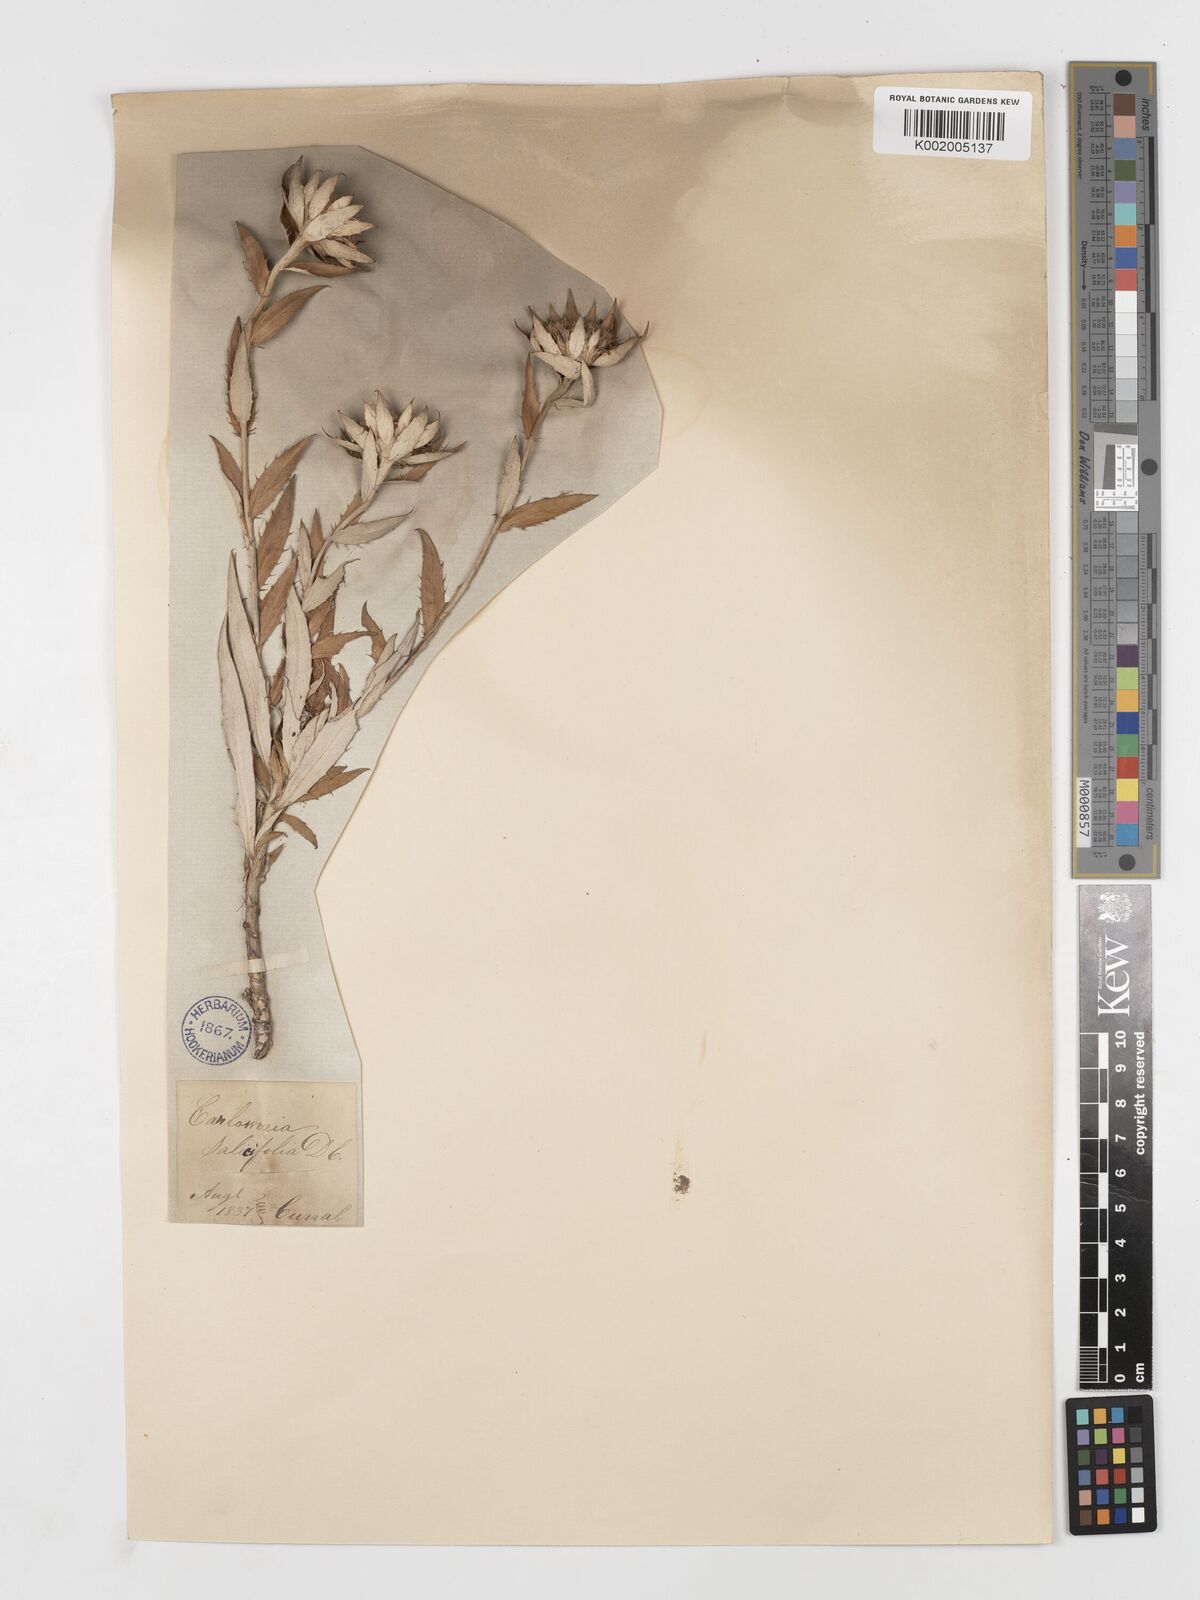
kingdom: Plantae
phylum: Tracheophyta
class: Magnoliopsida
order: Asterales
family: Asteraceae
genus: Carlina
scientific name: Carlina salicifolia
